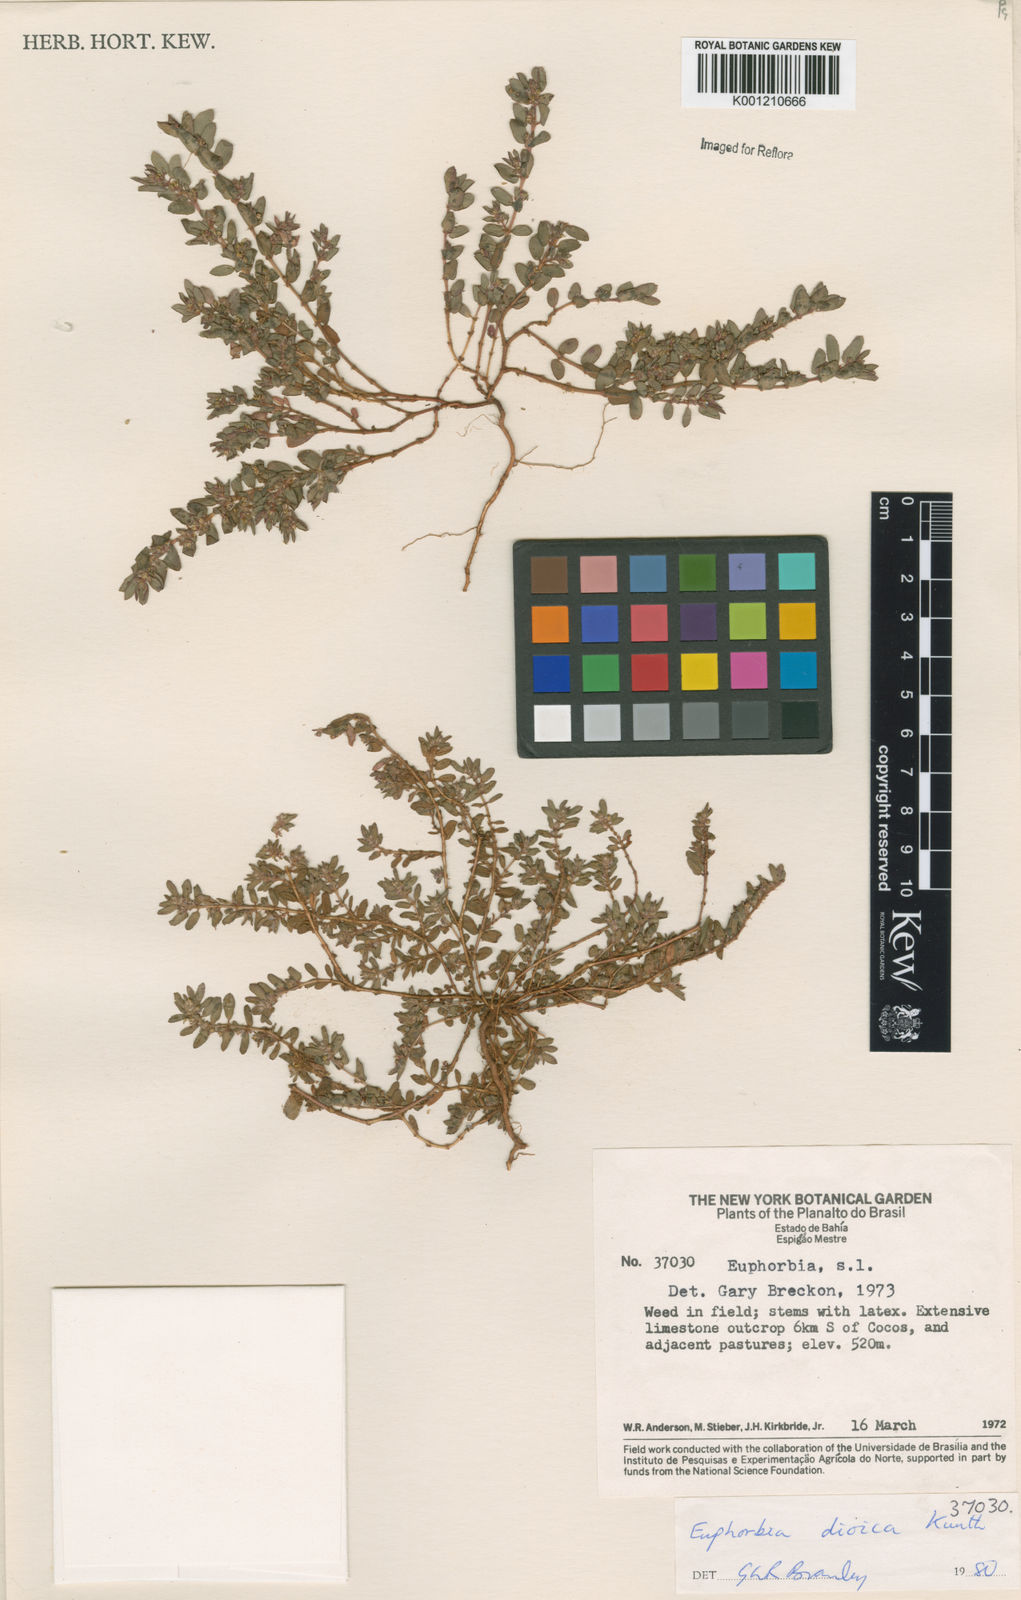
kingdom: Plantae
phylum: Tracheophyta
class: Magnoliopsida
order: Malpighiales
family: Euphorbiaceae
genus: Euphorbia
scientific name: Euphorbia
